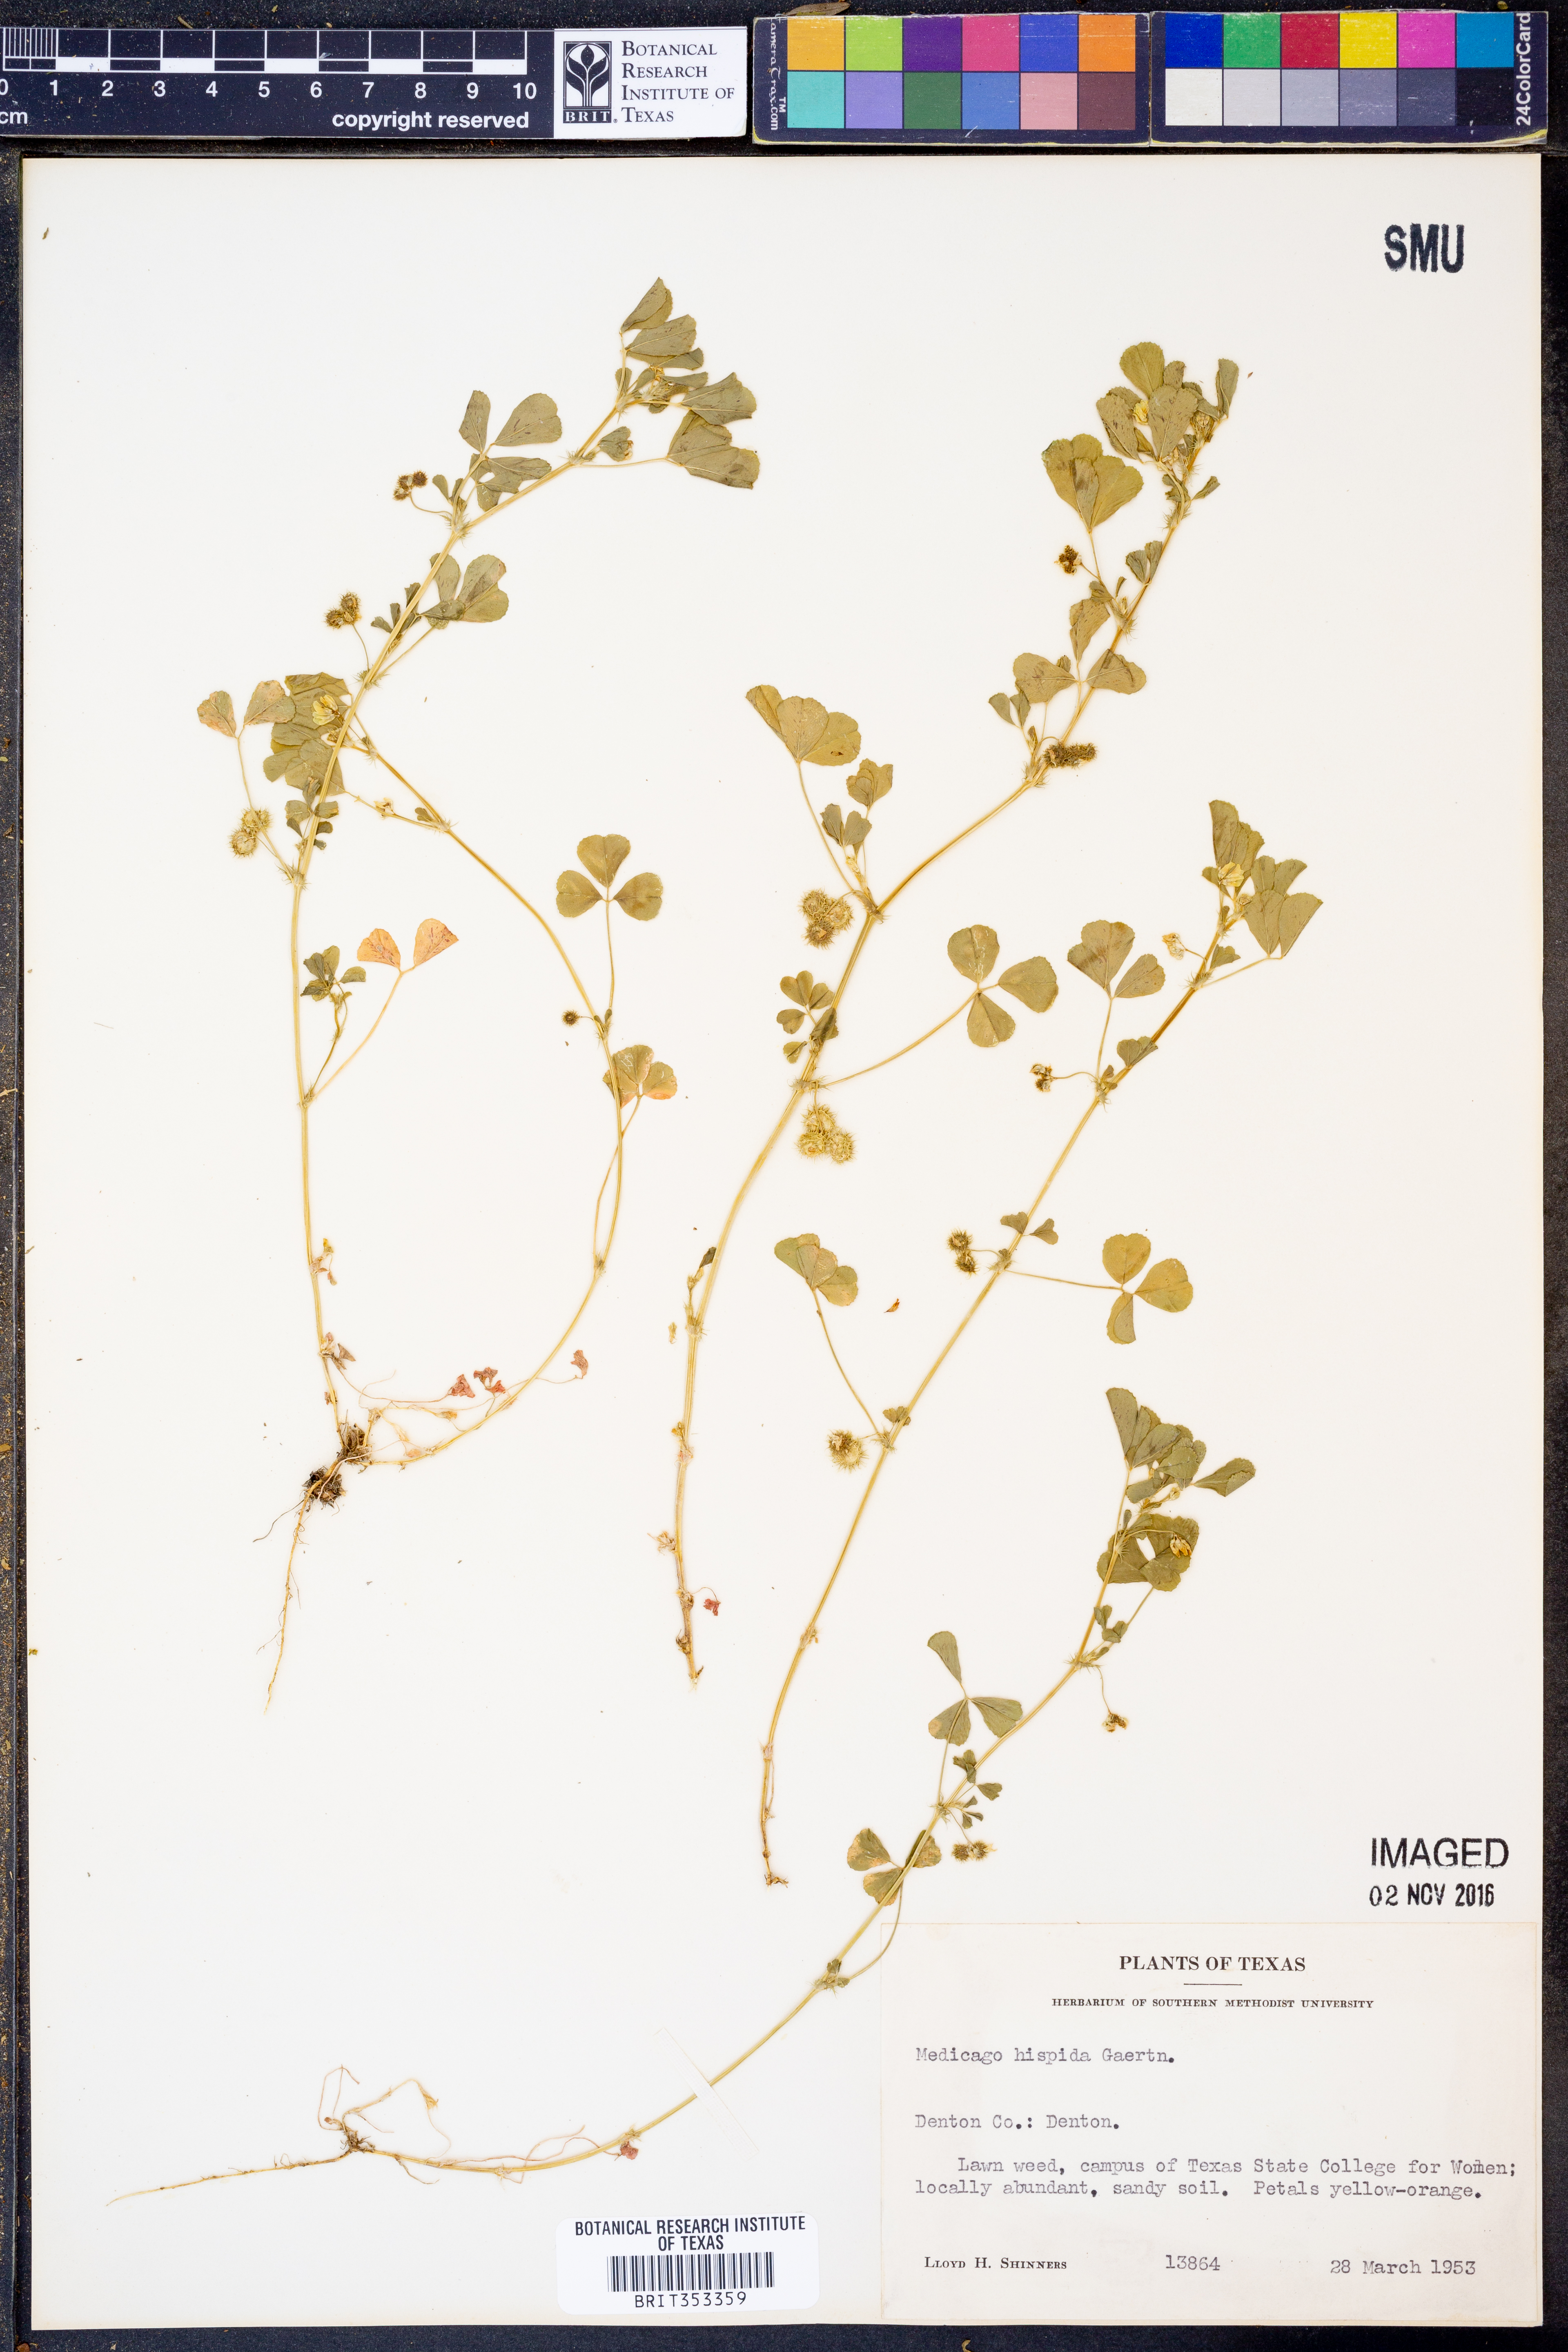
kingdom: Plantae
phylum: Tracheophyta
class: Magnoliopsida
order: Fabales
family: Fabaceae
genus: Medicago
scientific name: Medicago polymorpha
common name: Burclover
